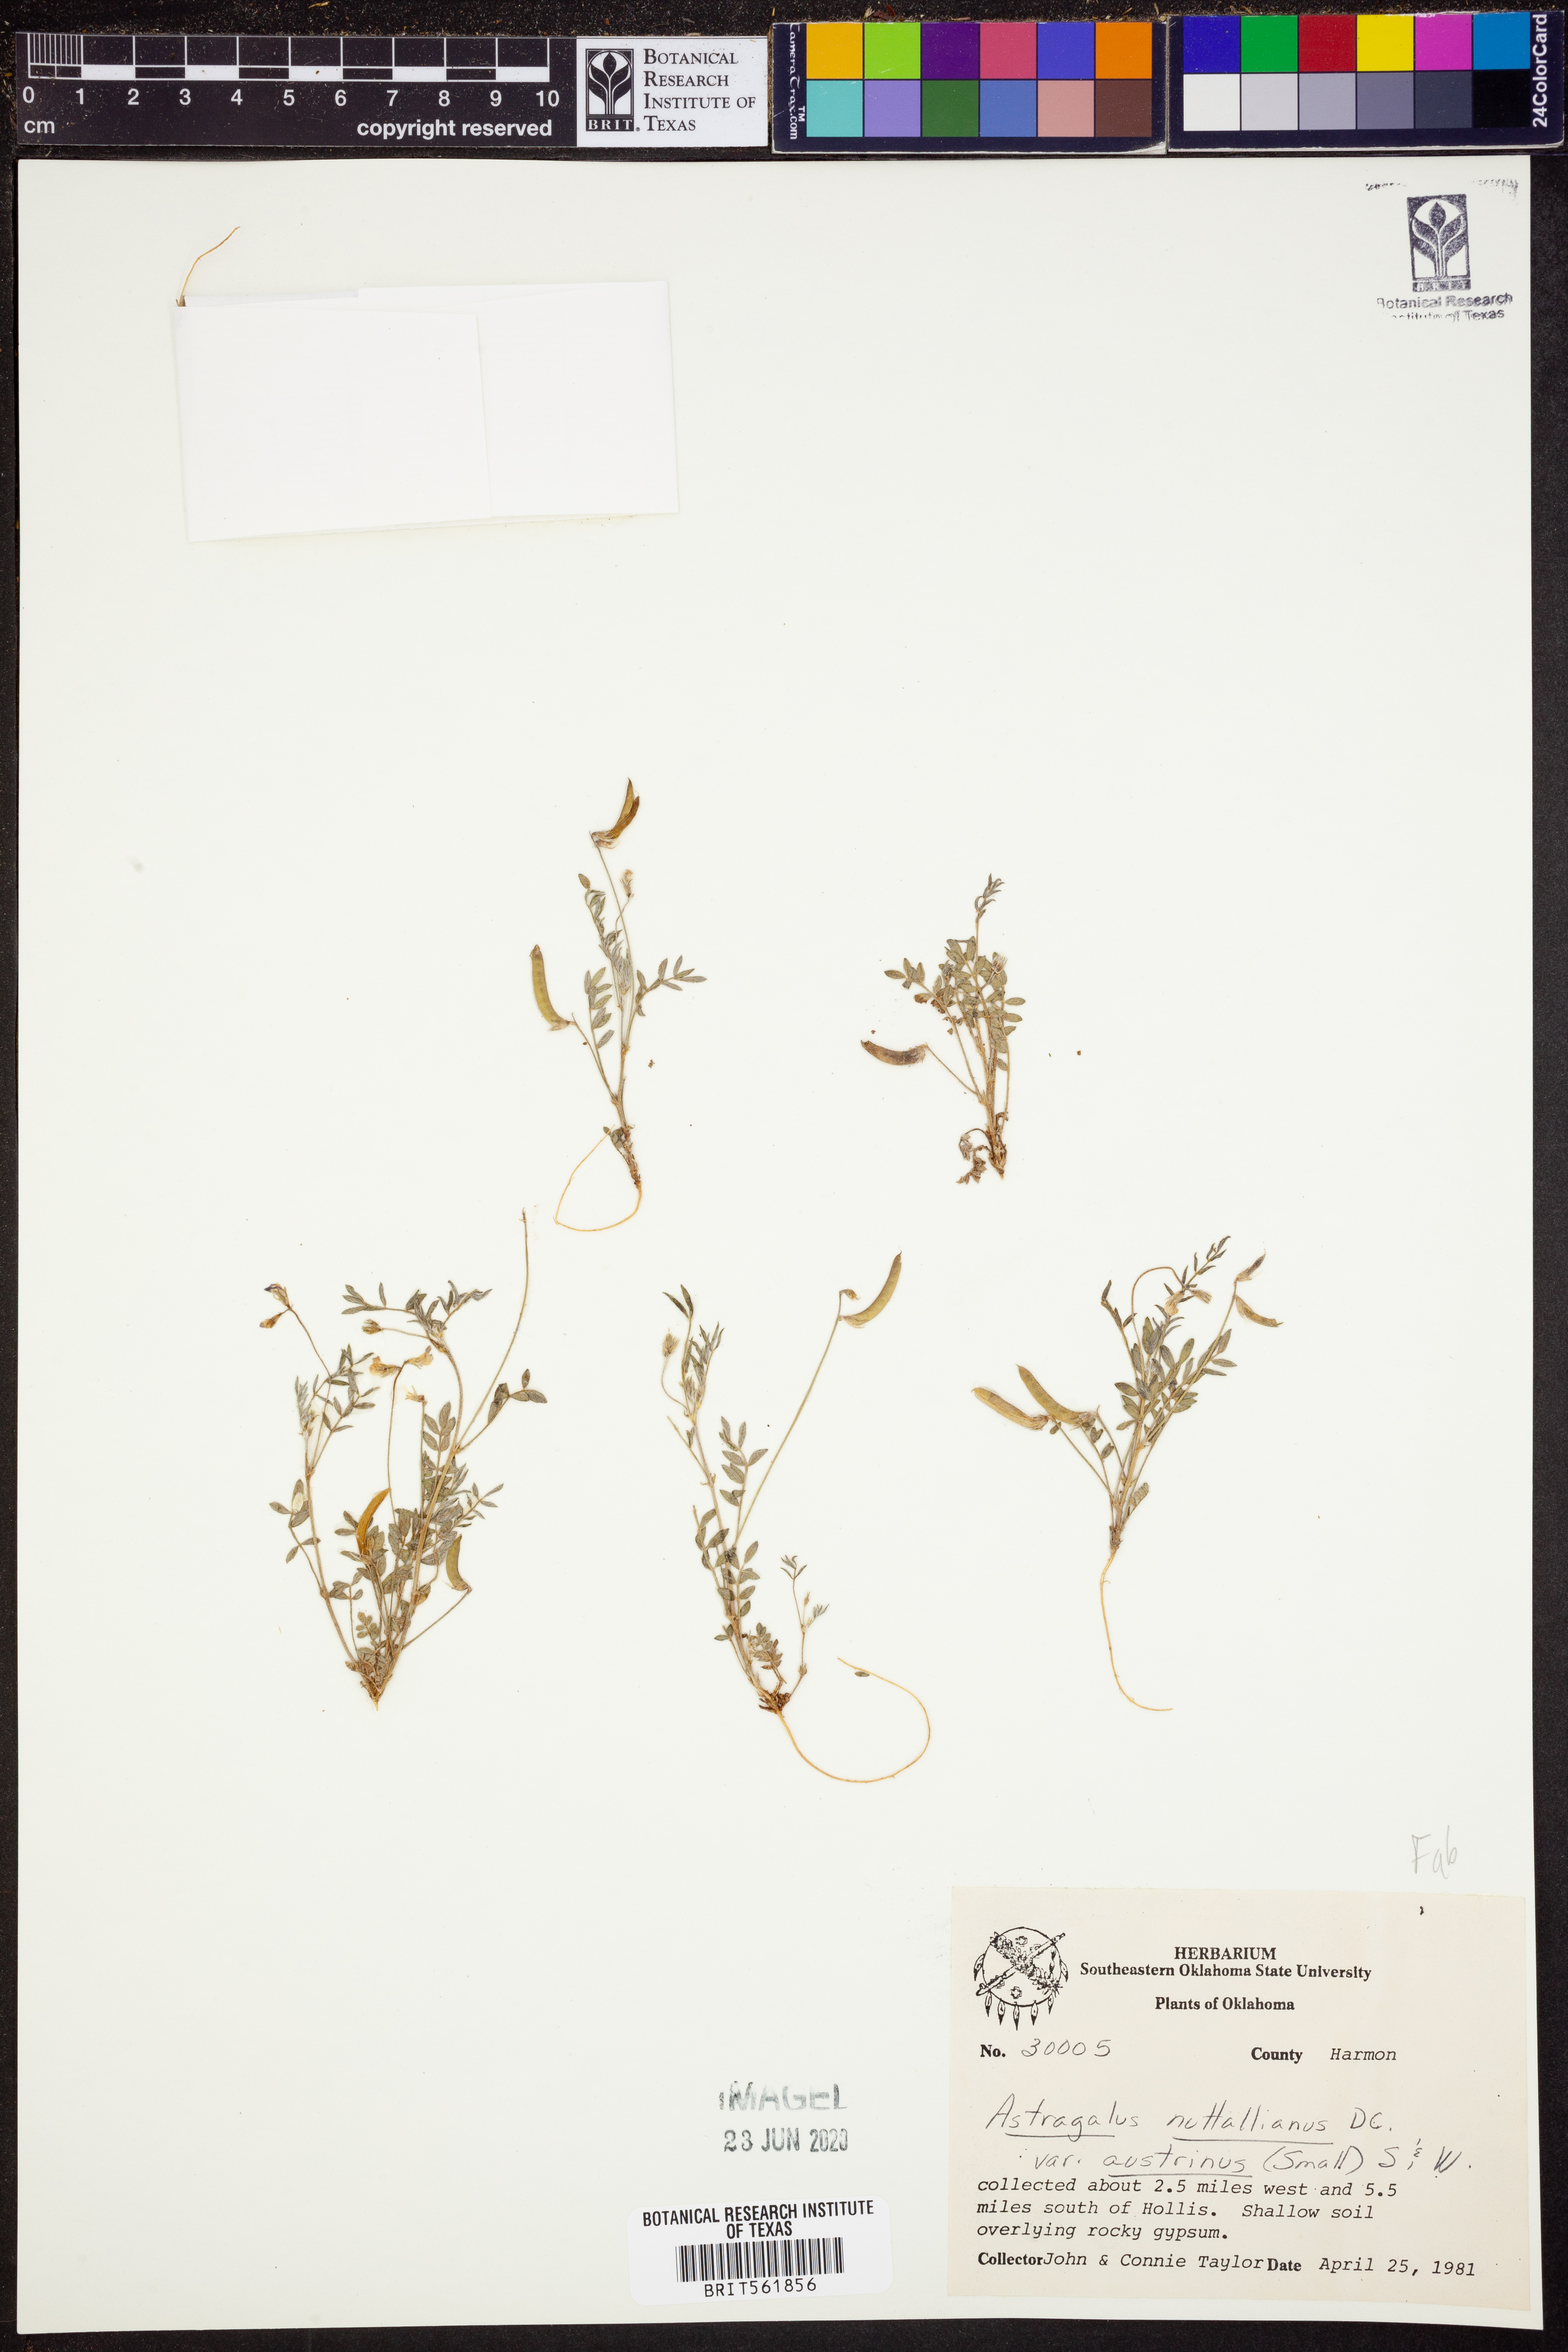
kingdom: Plantae
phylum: Tracheophyta
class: Magnoliopsida
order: Fabales
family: Fabaceae
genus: Astragalus
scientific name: Astragalus nuttallianus
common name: Smallflowered milkvetch
